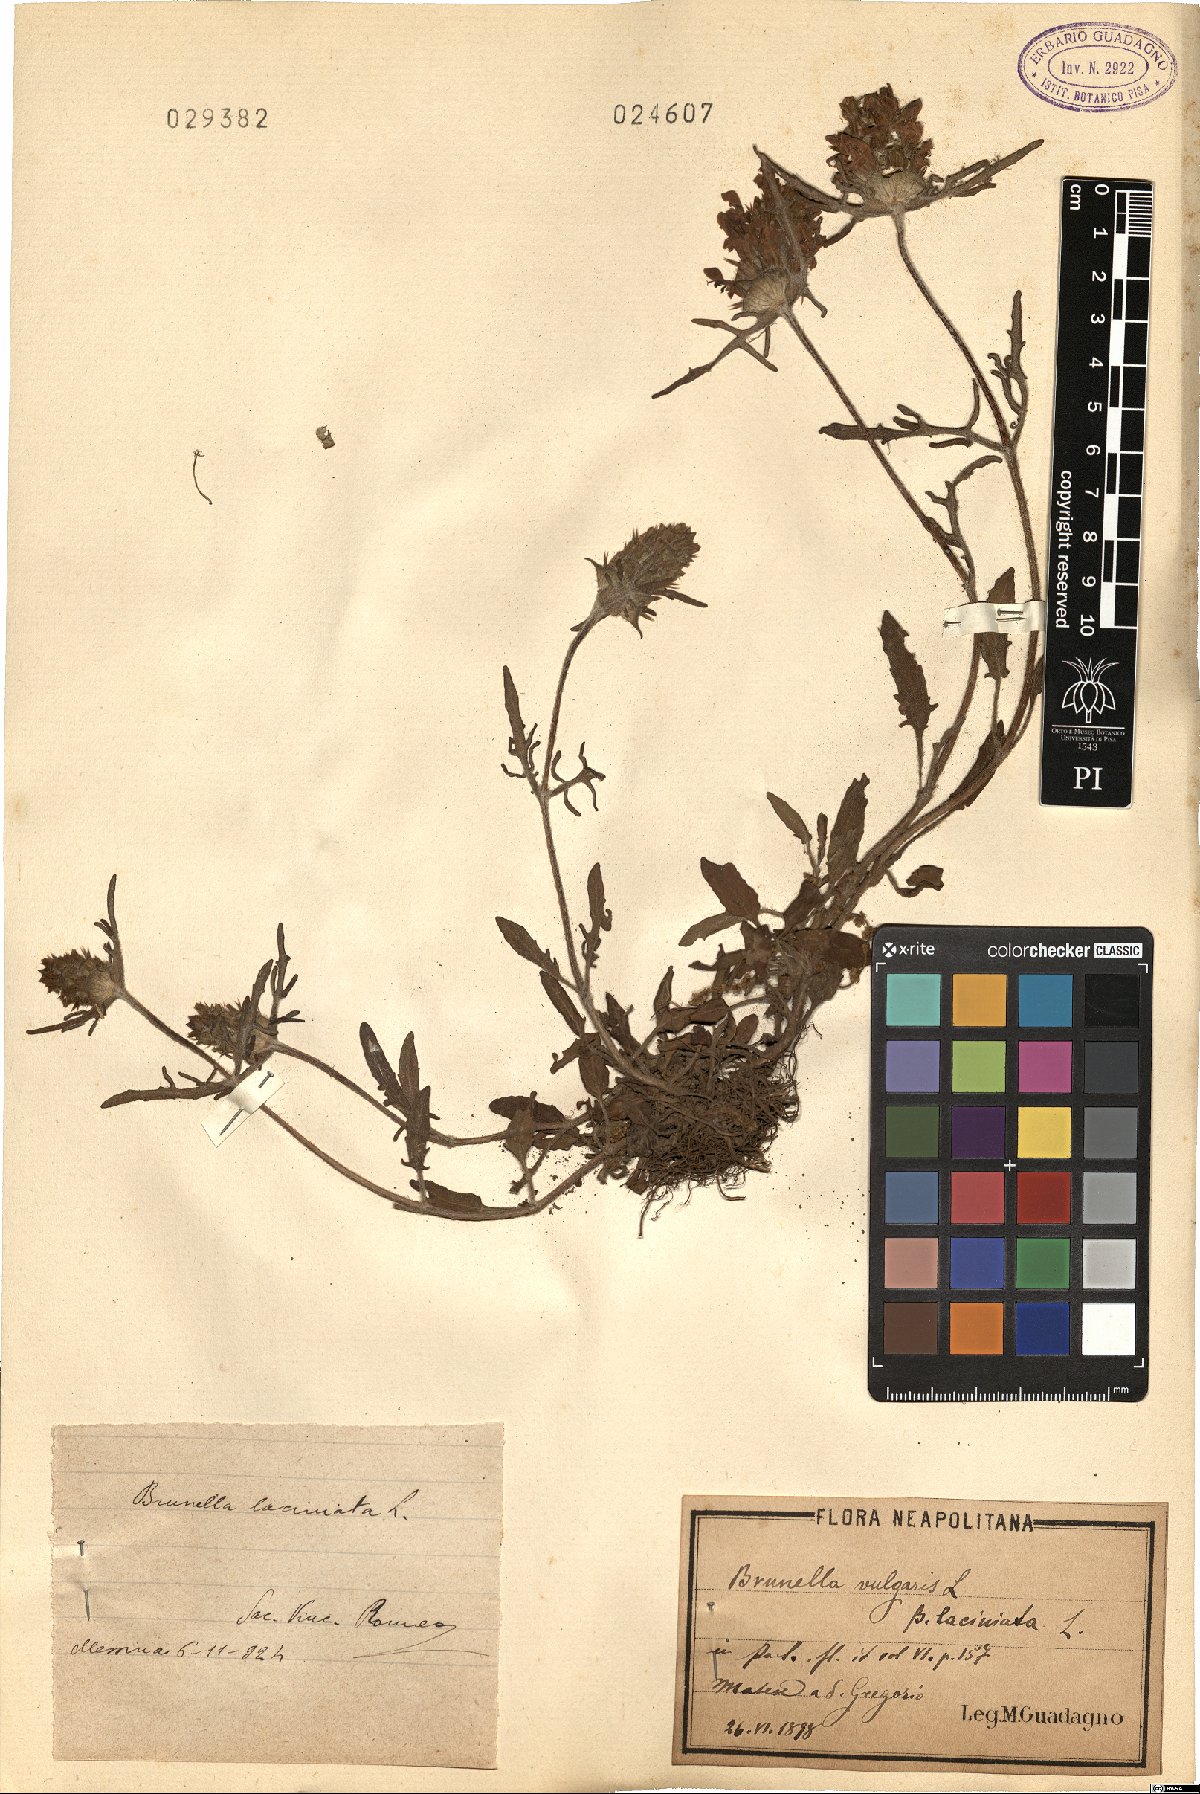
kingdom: Plantae
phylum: Tracheophyta
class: Magnoliopsida
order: Lamiales
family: Lamiaceae
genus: Prunella
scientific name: Prunella laciniata
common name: Cut-leaved selfheal
